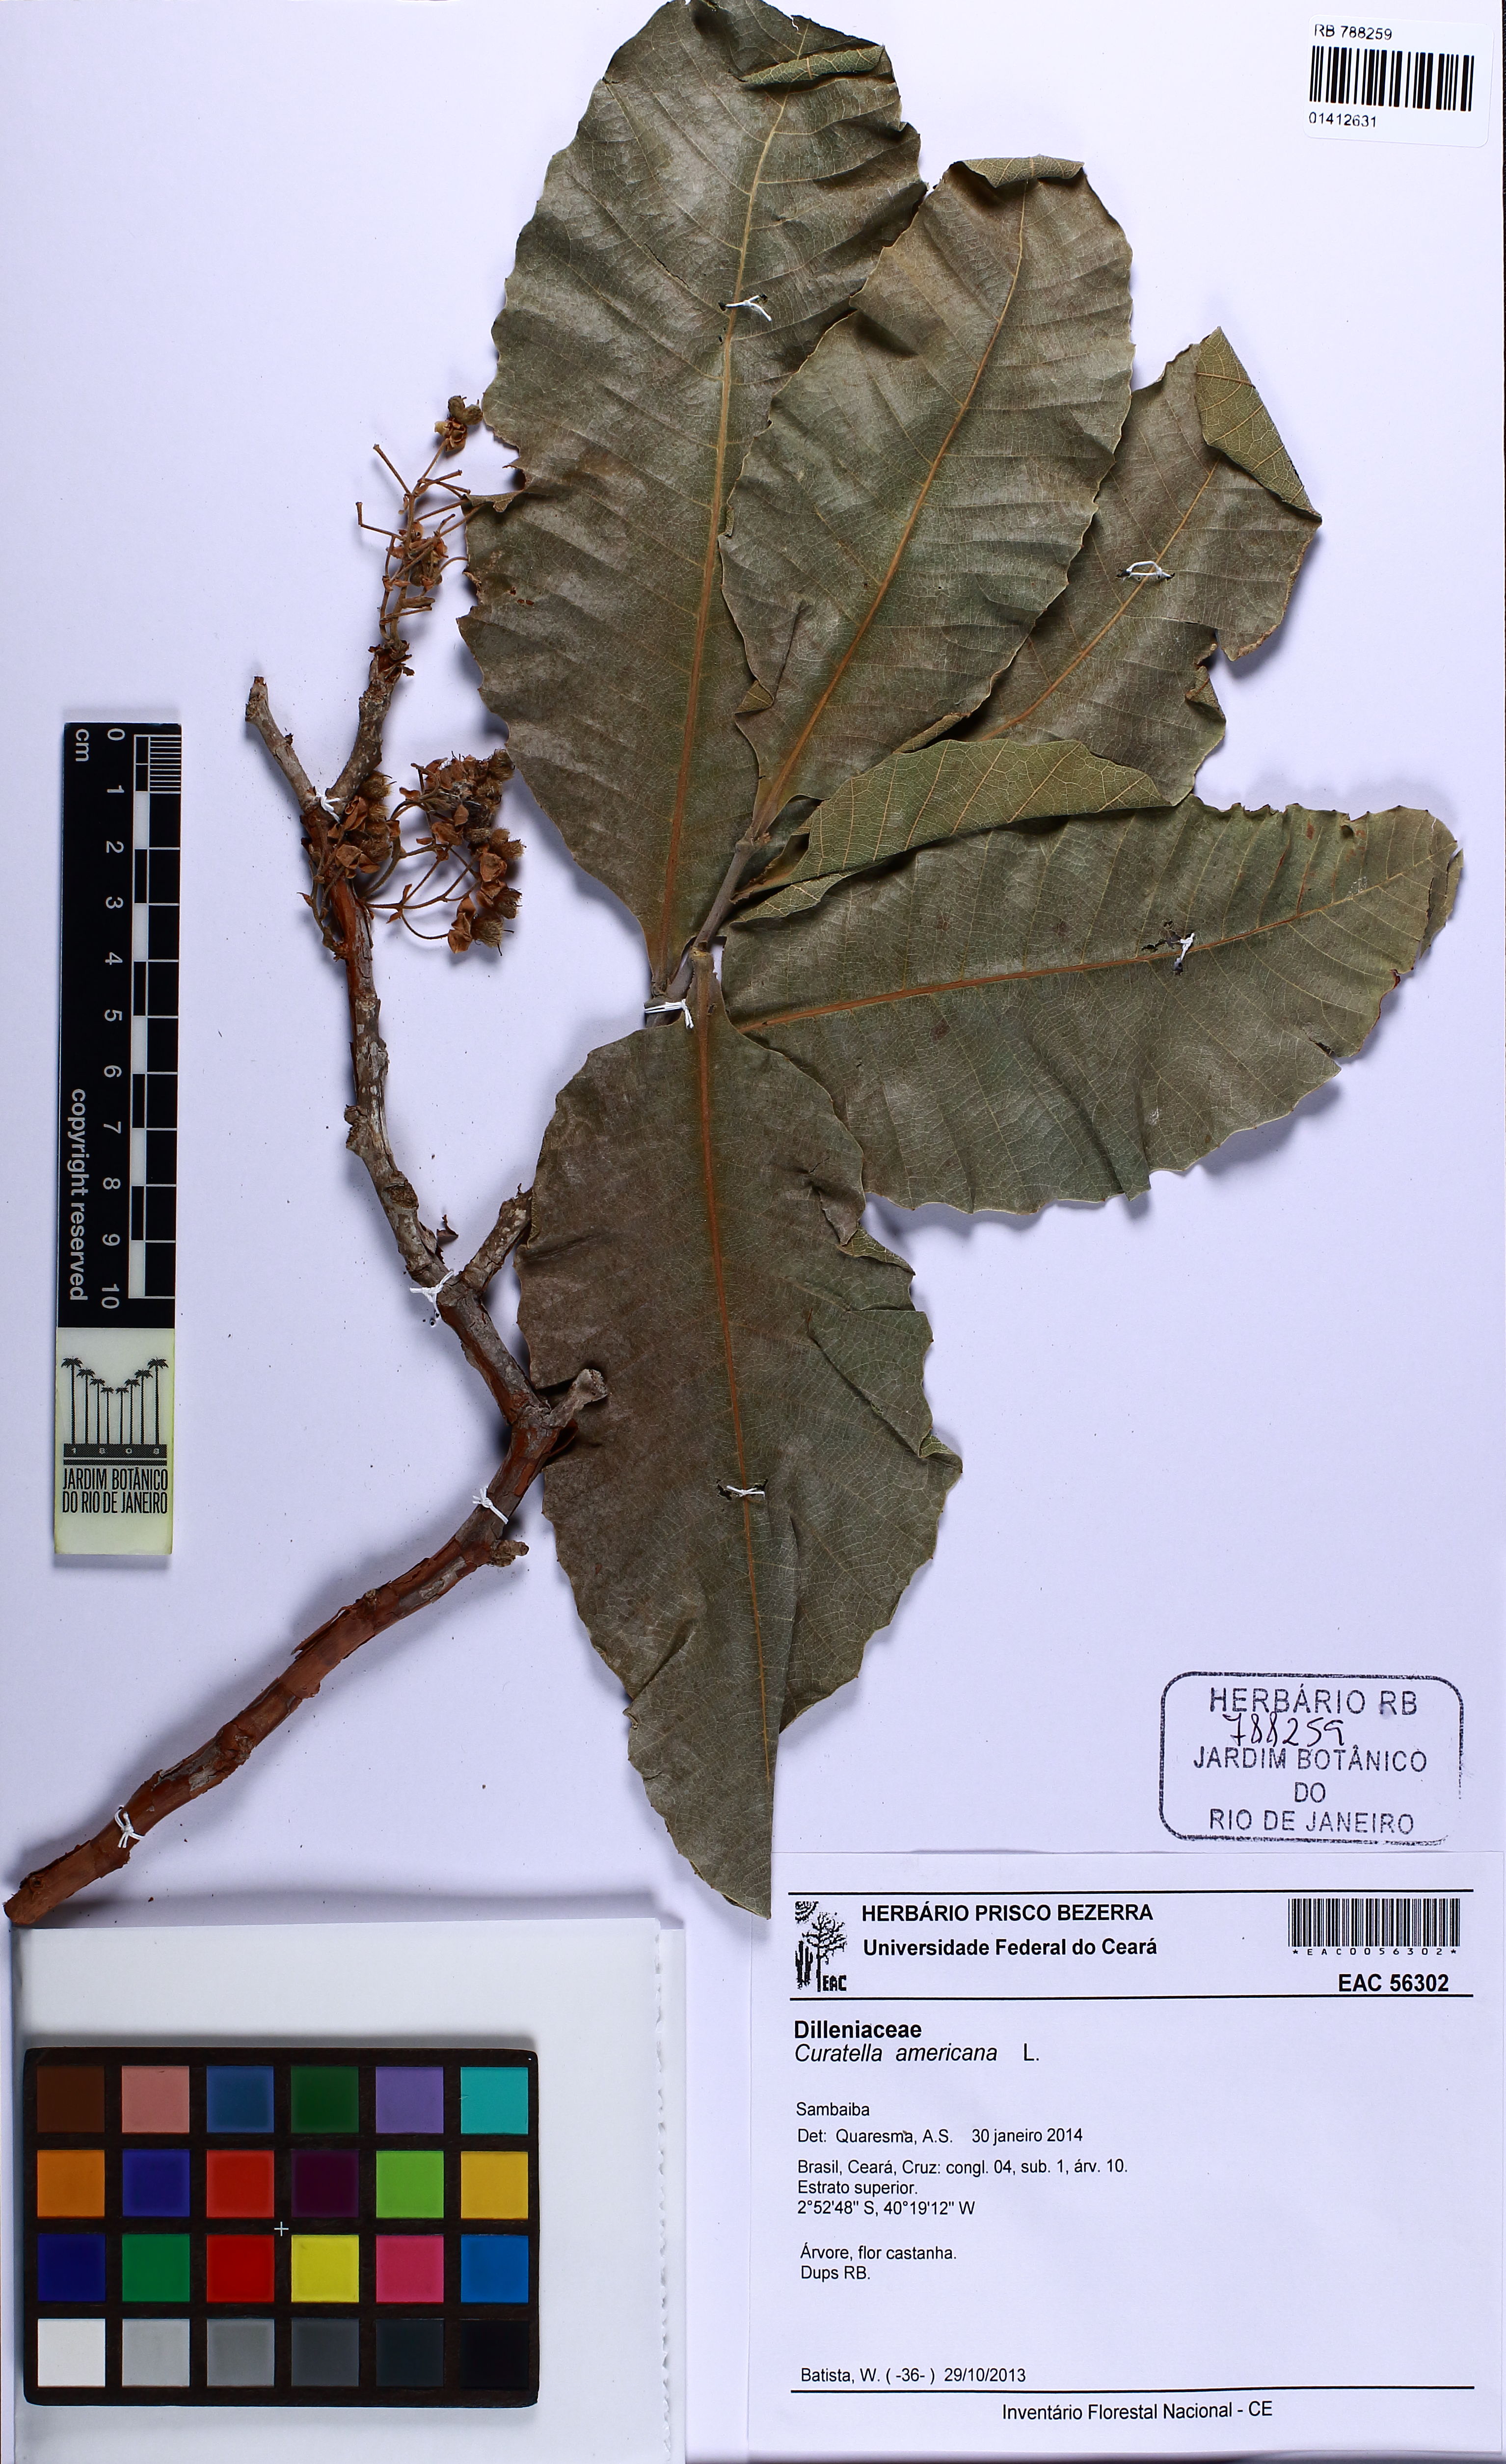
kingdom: Plantae
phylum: Tracheophyta
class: Magnoliopsida
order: Dilleniales
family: Dilleniaceae
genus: Curatella
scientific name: Curatella americana
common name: Sandpaper tree
